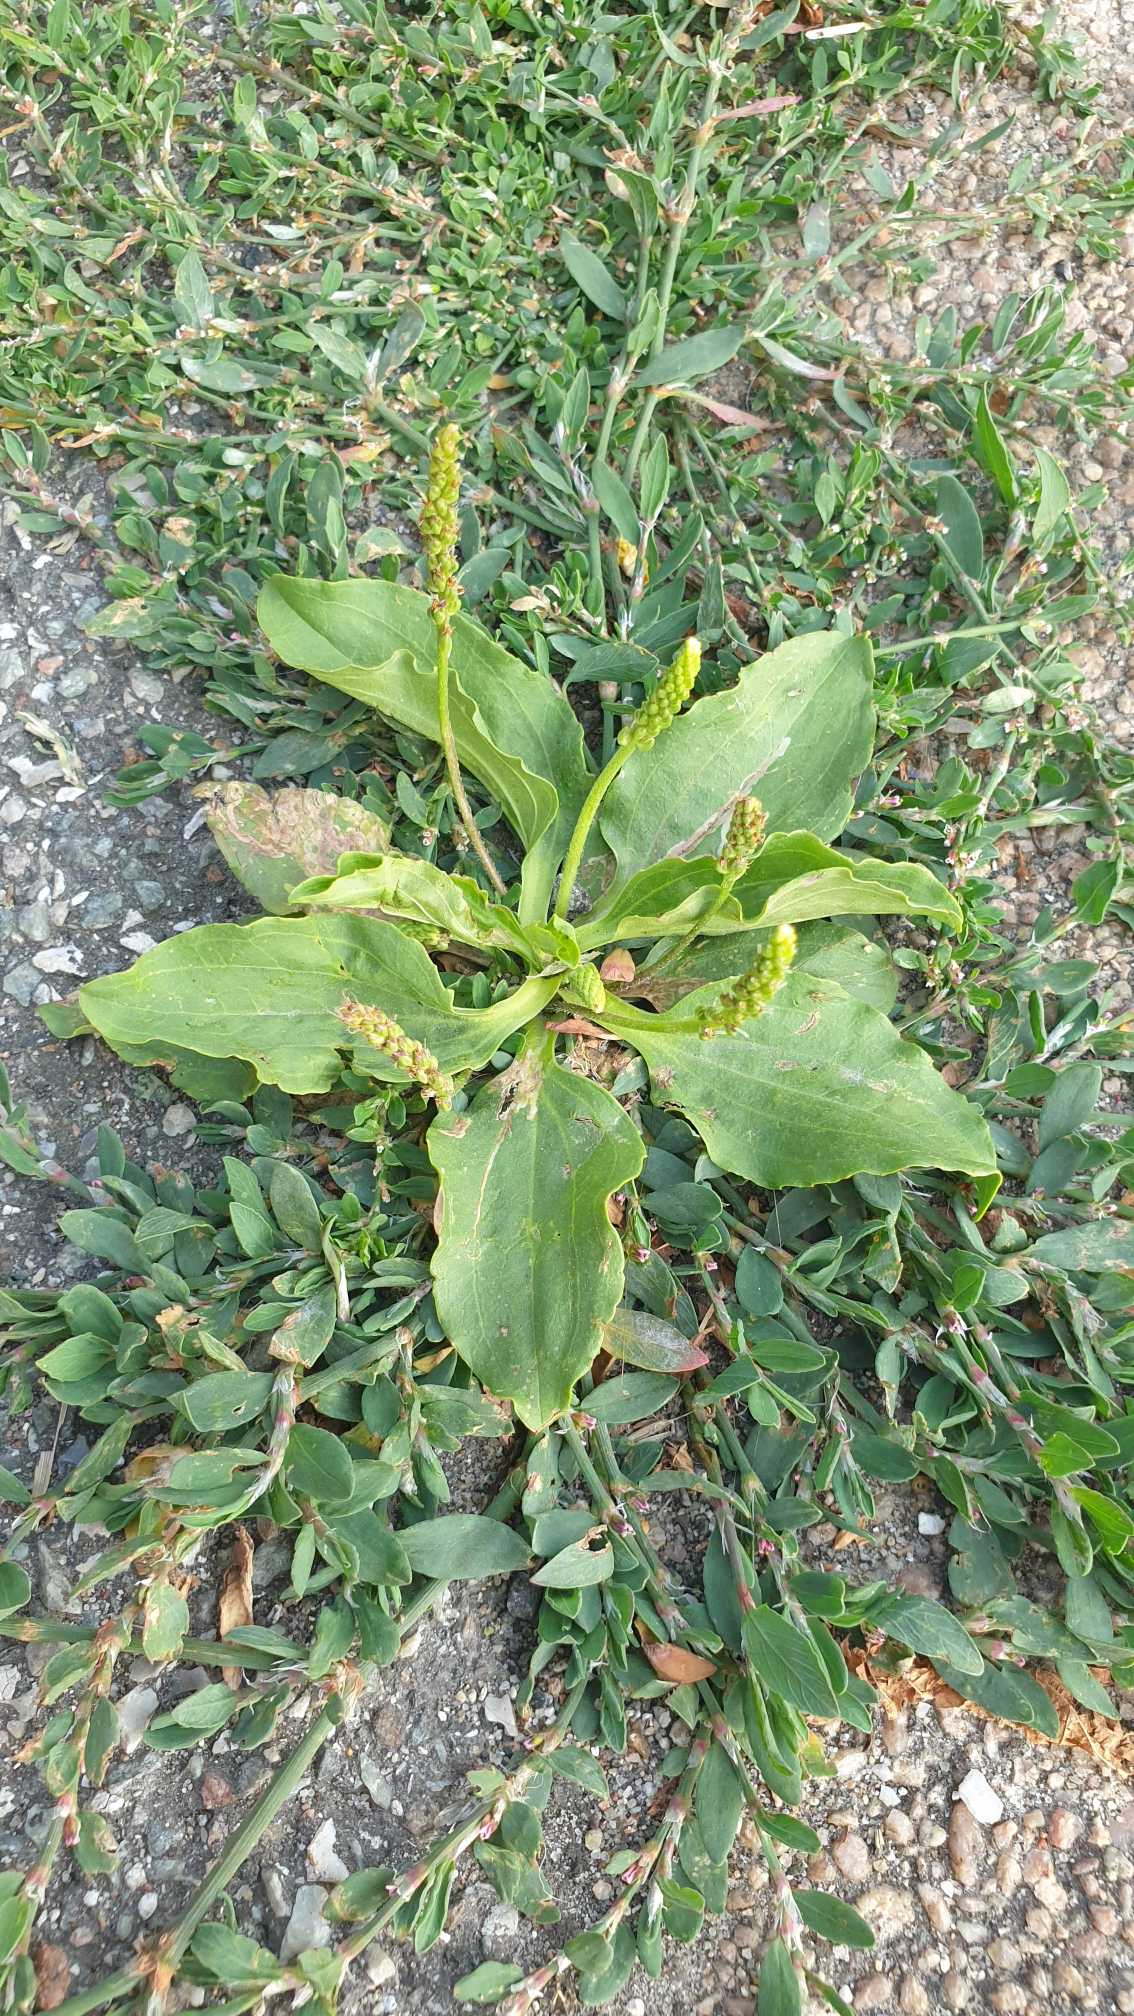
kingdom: Plantae
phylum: Tracheophyta
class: Magnoliopsida
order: Lamiales
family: Plantaginaceae
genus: Plantago
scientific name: Plantago major
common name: Glat vejbred
